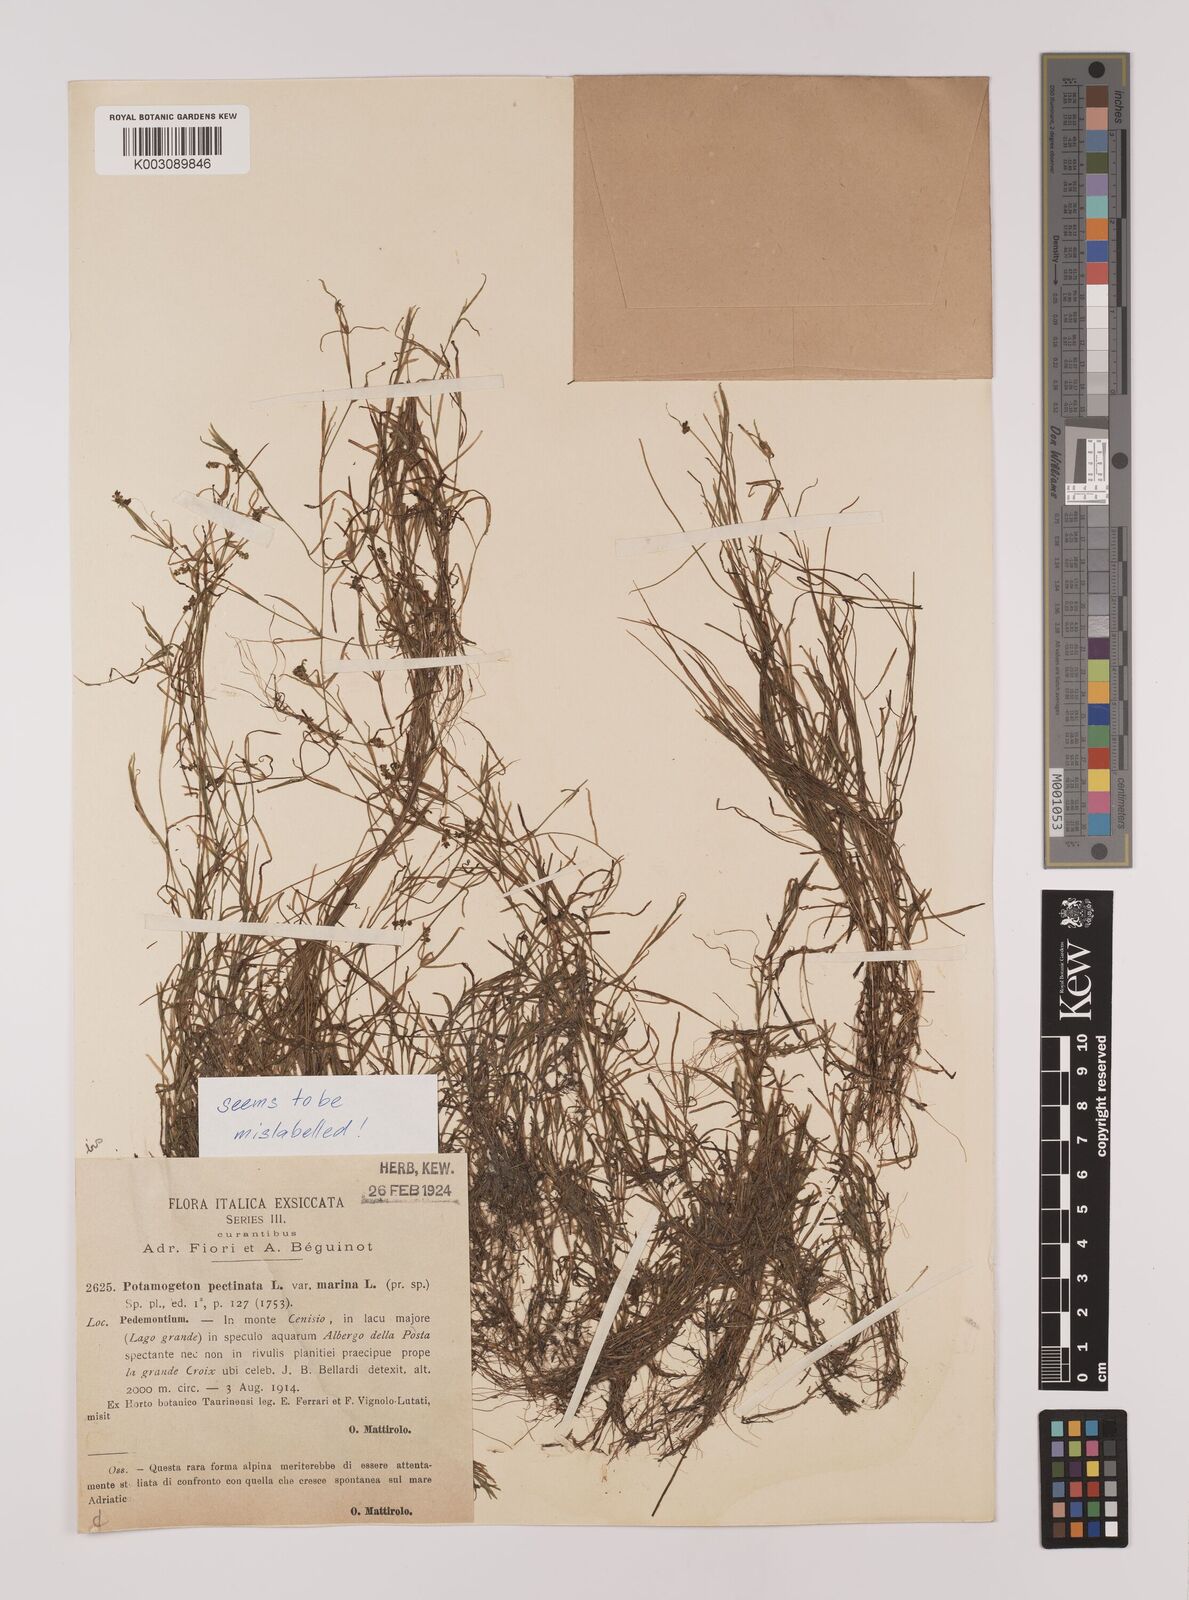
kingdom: Plantae
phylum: Tracheophyta
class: Liliopsida
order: Alismatales
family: Potamogetonaceae
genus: Stuckenia
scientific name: Stuckenia pectinata
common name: Sago pondweed
